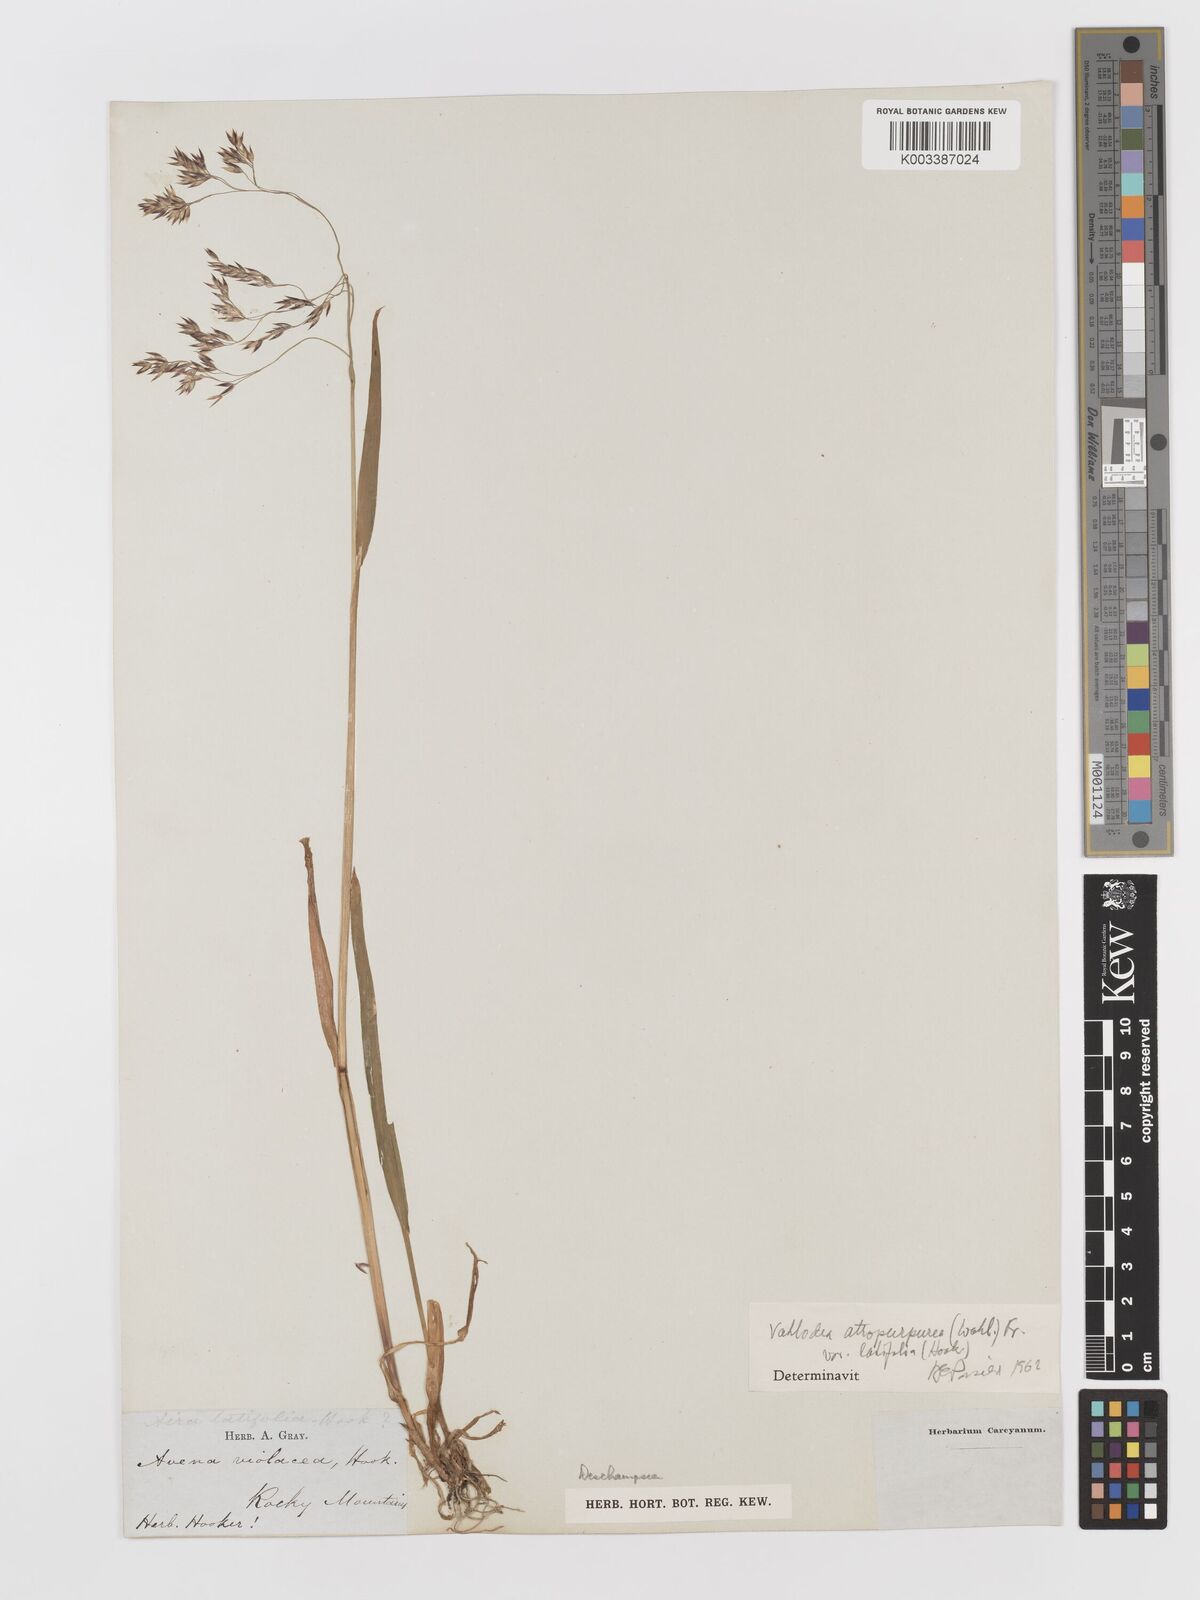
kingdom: Plantae
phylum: Tracheophyta
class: Liliopsida
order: Poales
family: Poaceae
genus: Vahlodea
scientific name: Vahlodea atropurpurea
